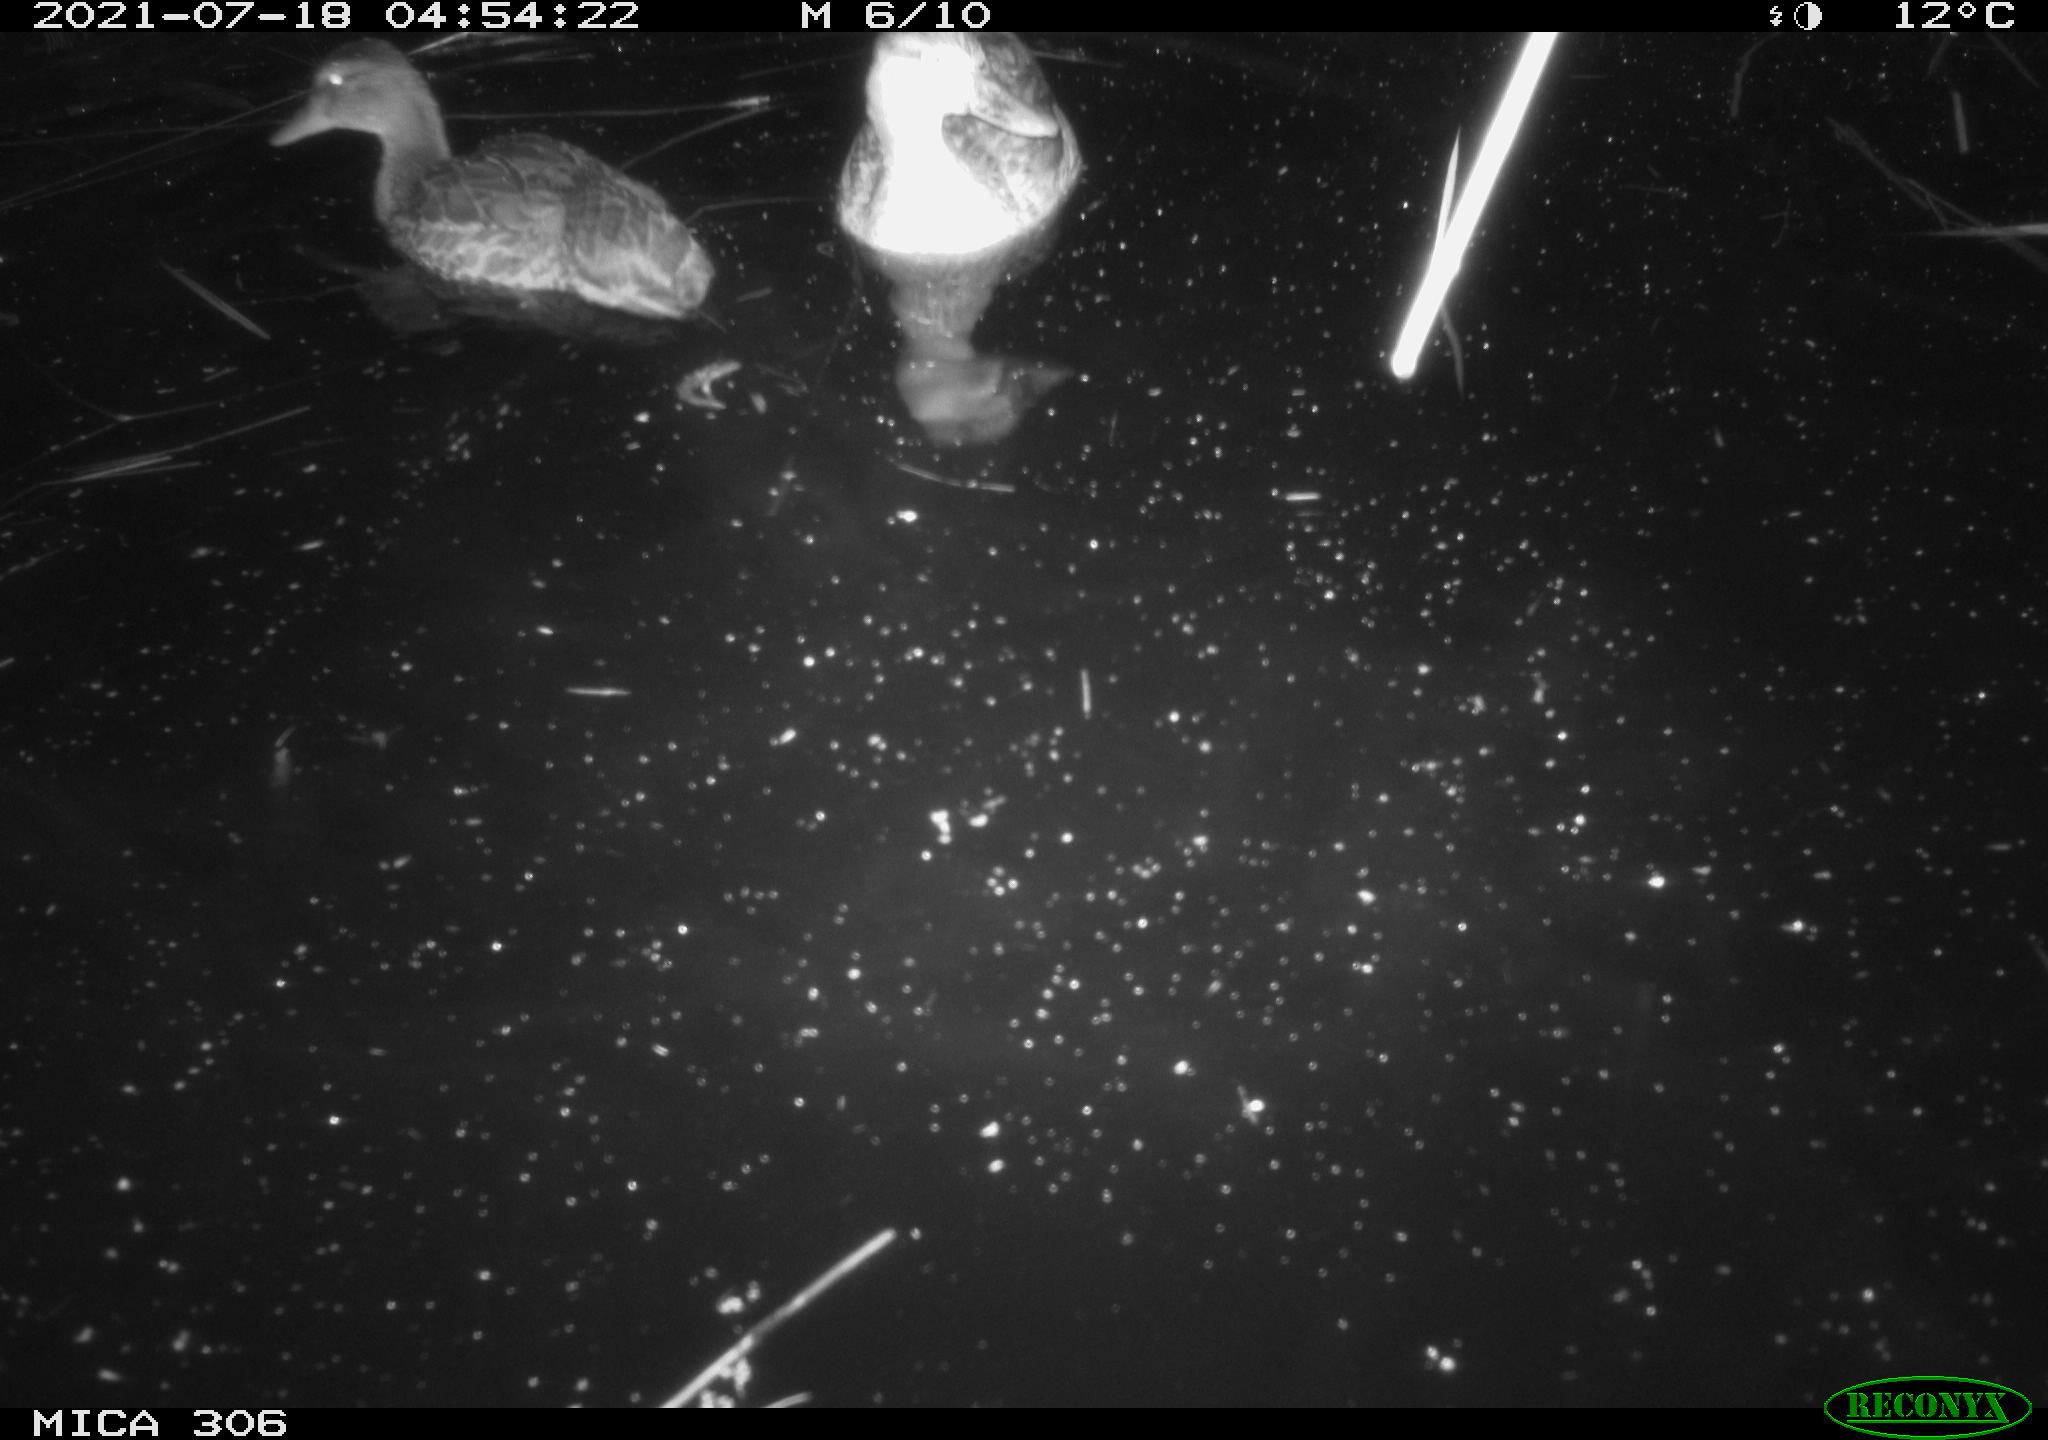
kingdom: Animalia
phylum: Chordata
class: Aves
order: Anseriformes
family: Anatidae
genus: Anas
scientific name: Anas
